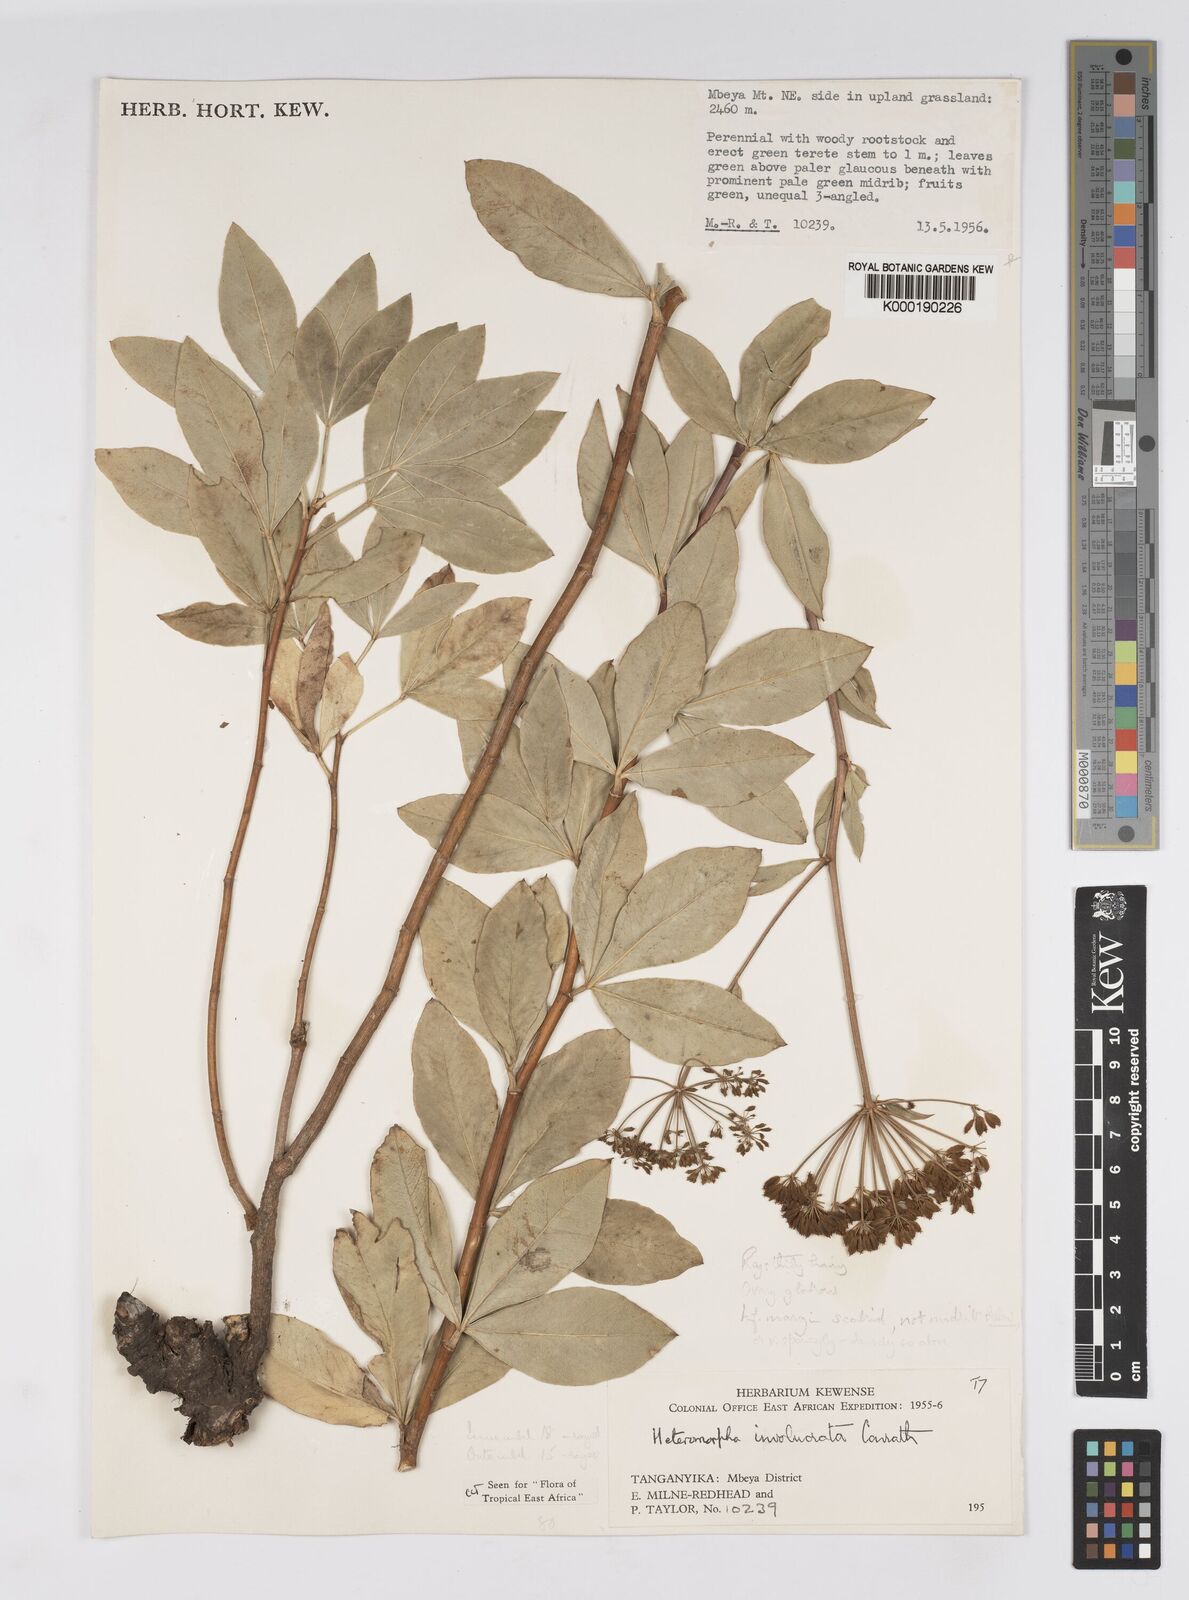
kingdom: Plantae
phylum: Tracheophyta
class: Magnoliopsida
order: Apiales
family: Apiaceae
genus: Heteromorpha
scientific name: Heteromorpha involucrata
